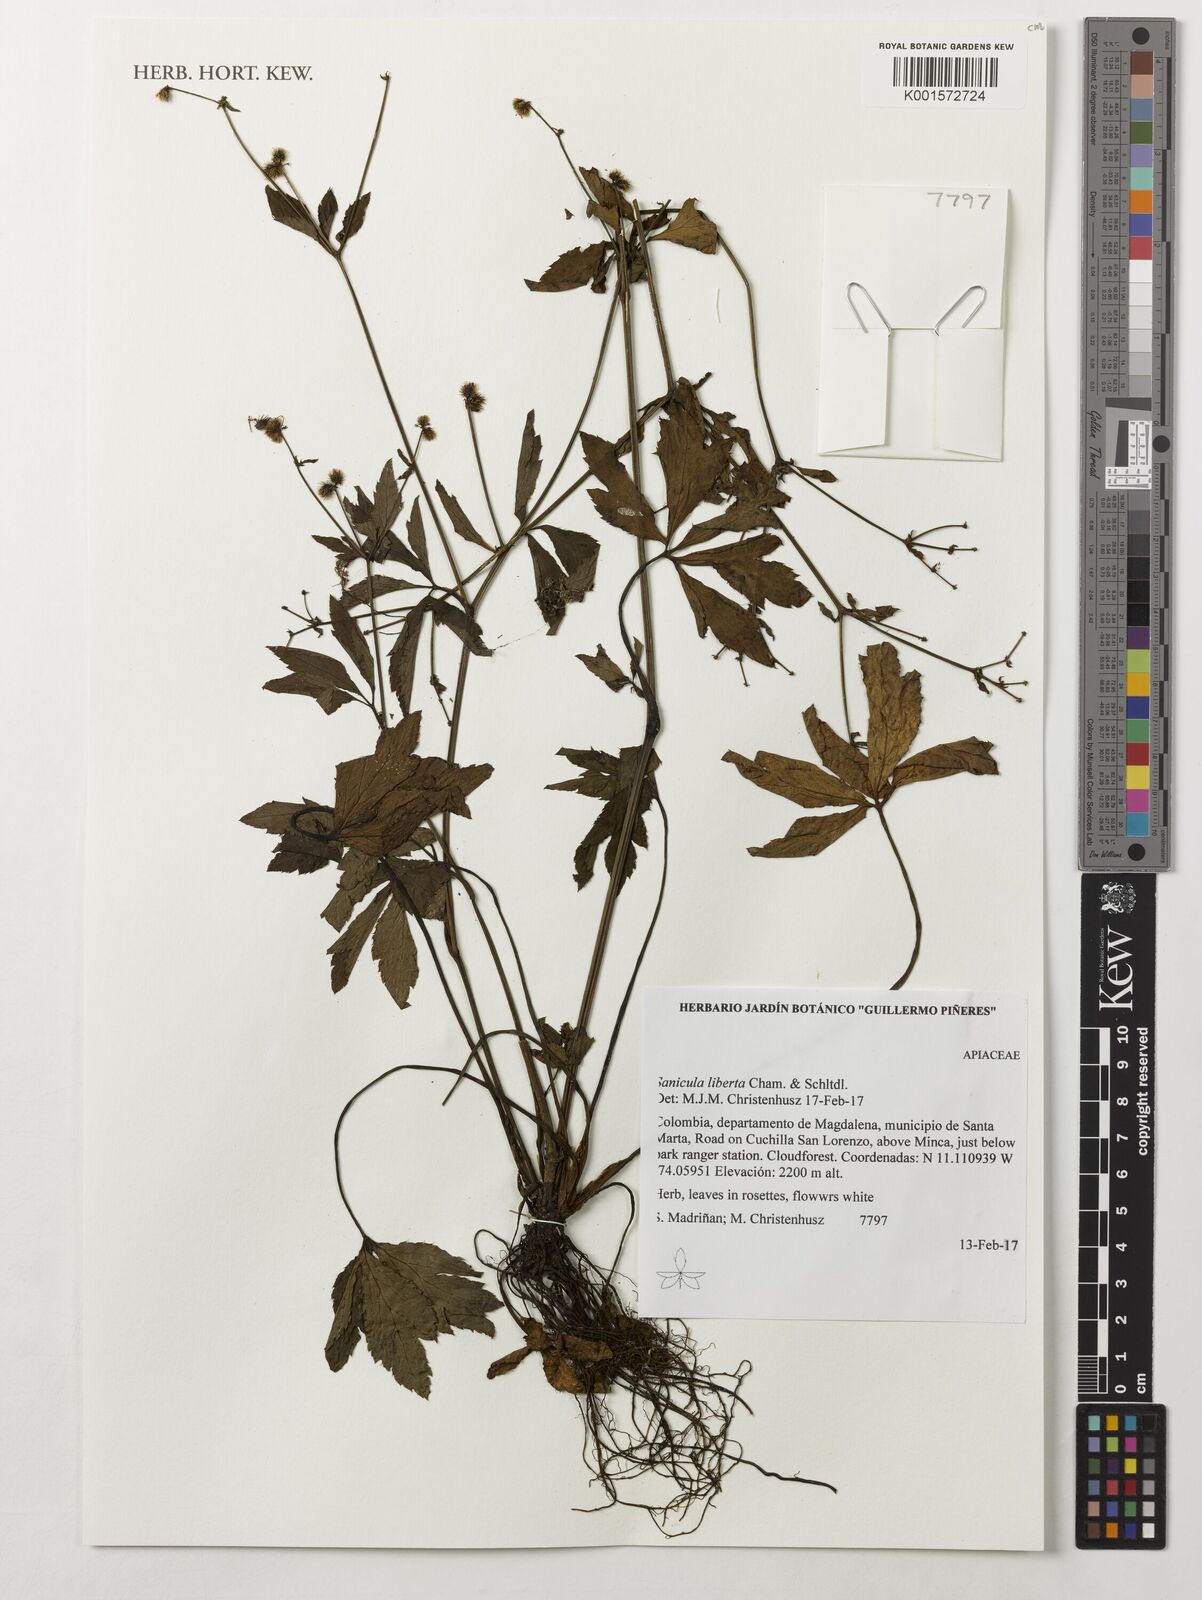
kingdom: Plantae
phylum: Tracheophyta
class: Magnoliopsida
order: Apiales
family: Apiaceae
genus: Sanicula
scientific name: Sanicula liberta
